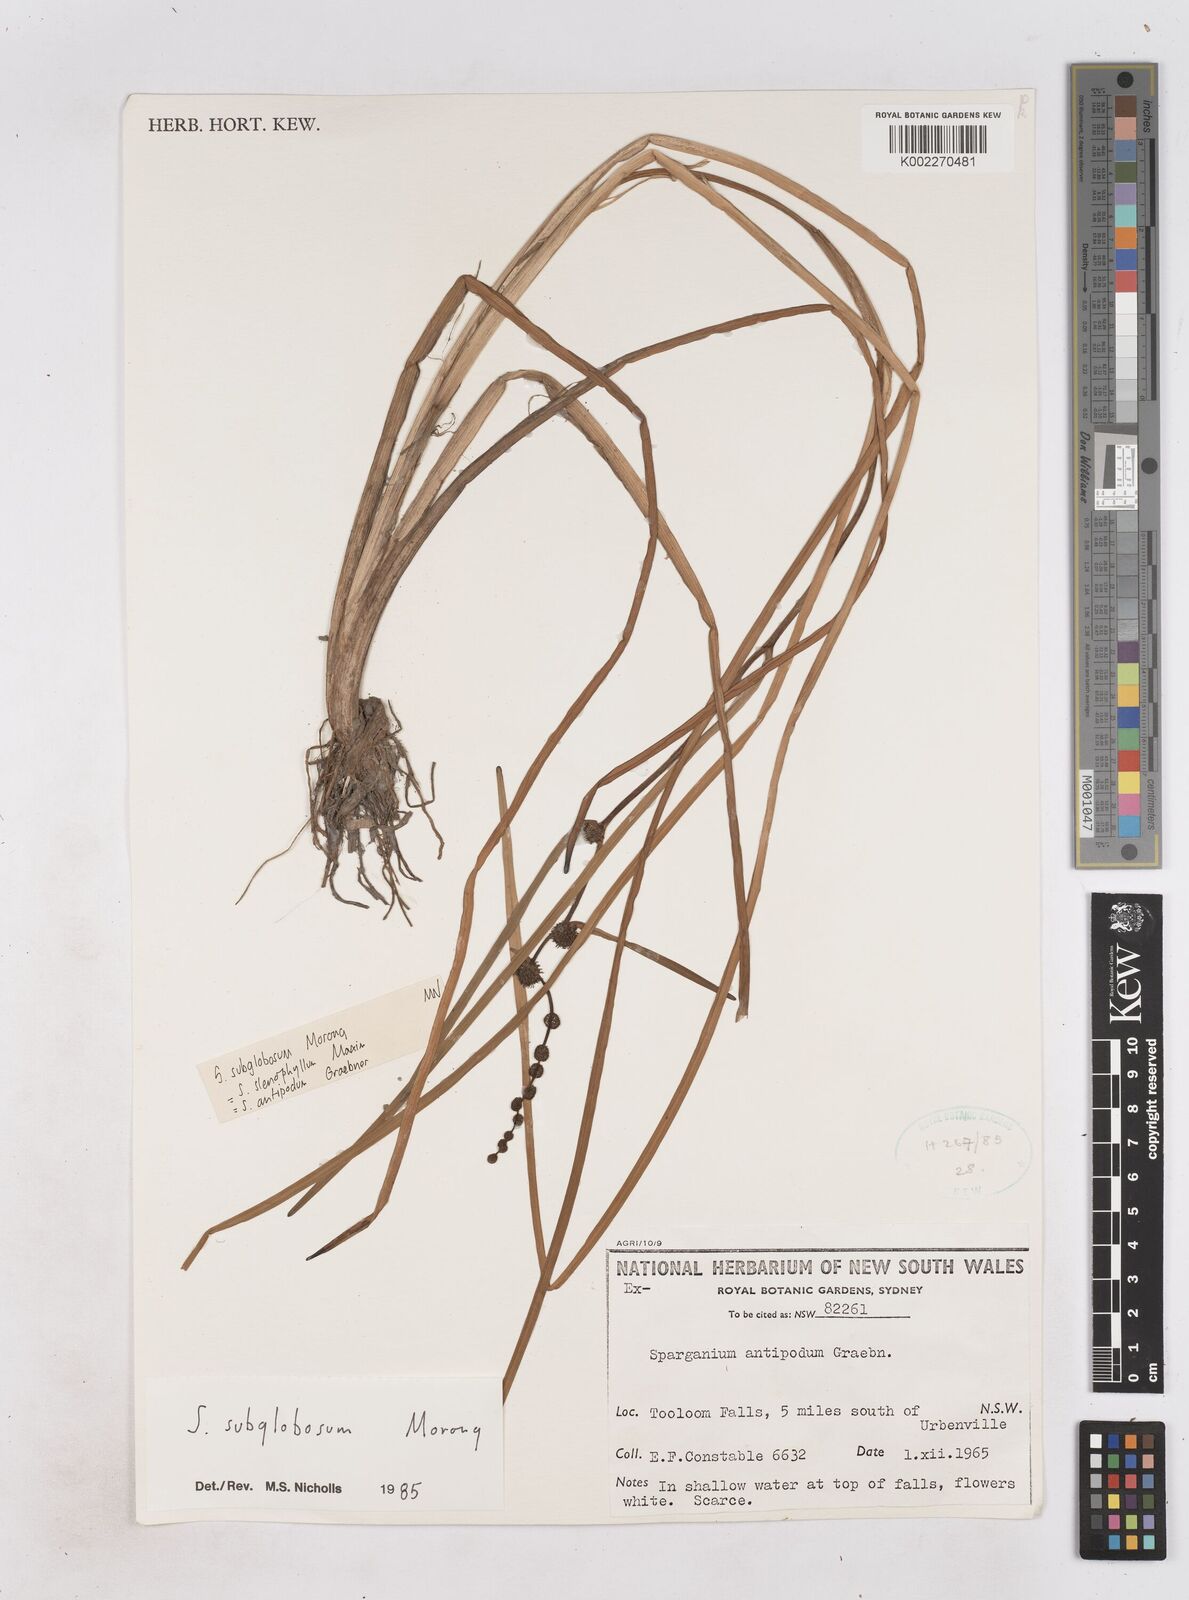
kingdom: Plantae
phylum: Tracheophyta
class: Liliopsida
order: Poales
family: Typhaceae
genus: Sparganium
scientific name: Sparganium subglobosum
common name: Burr­-reed
